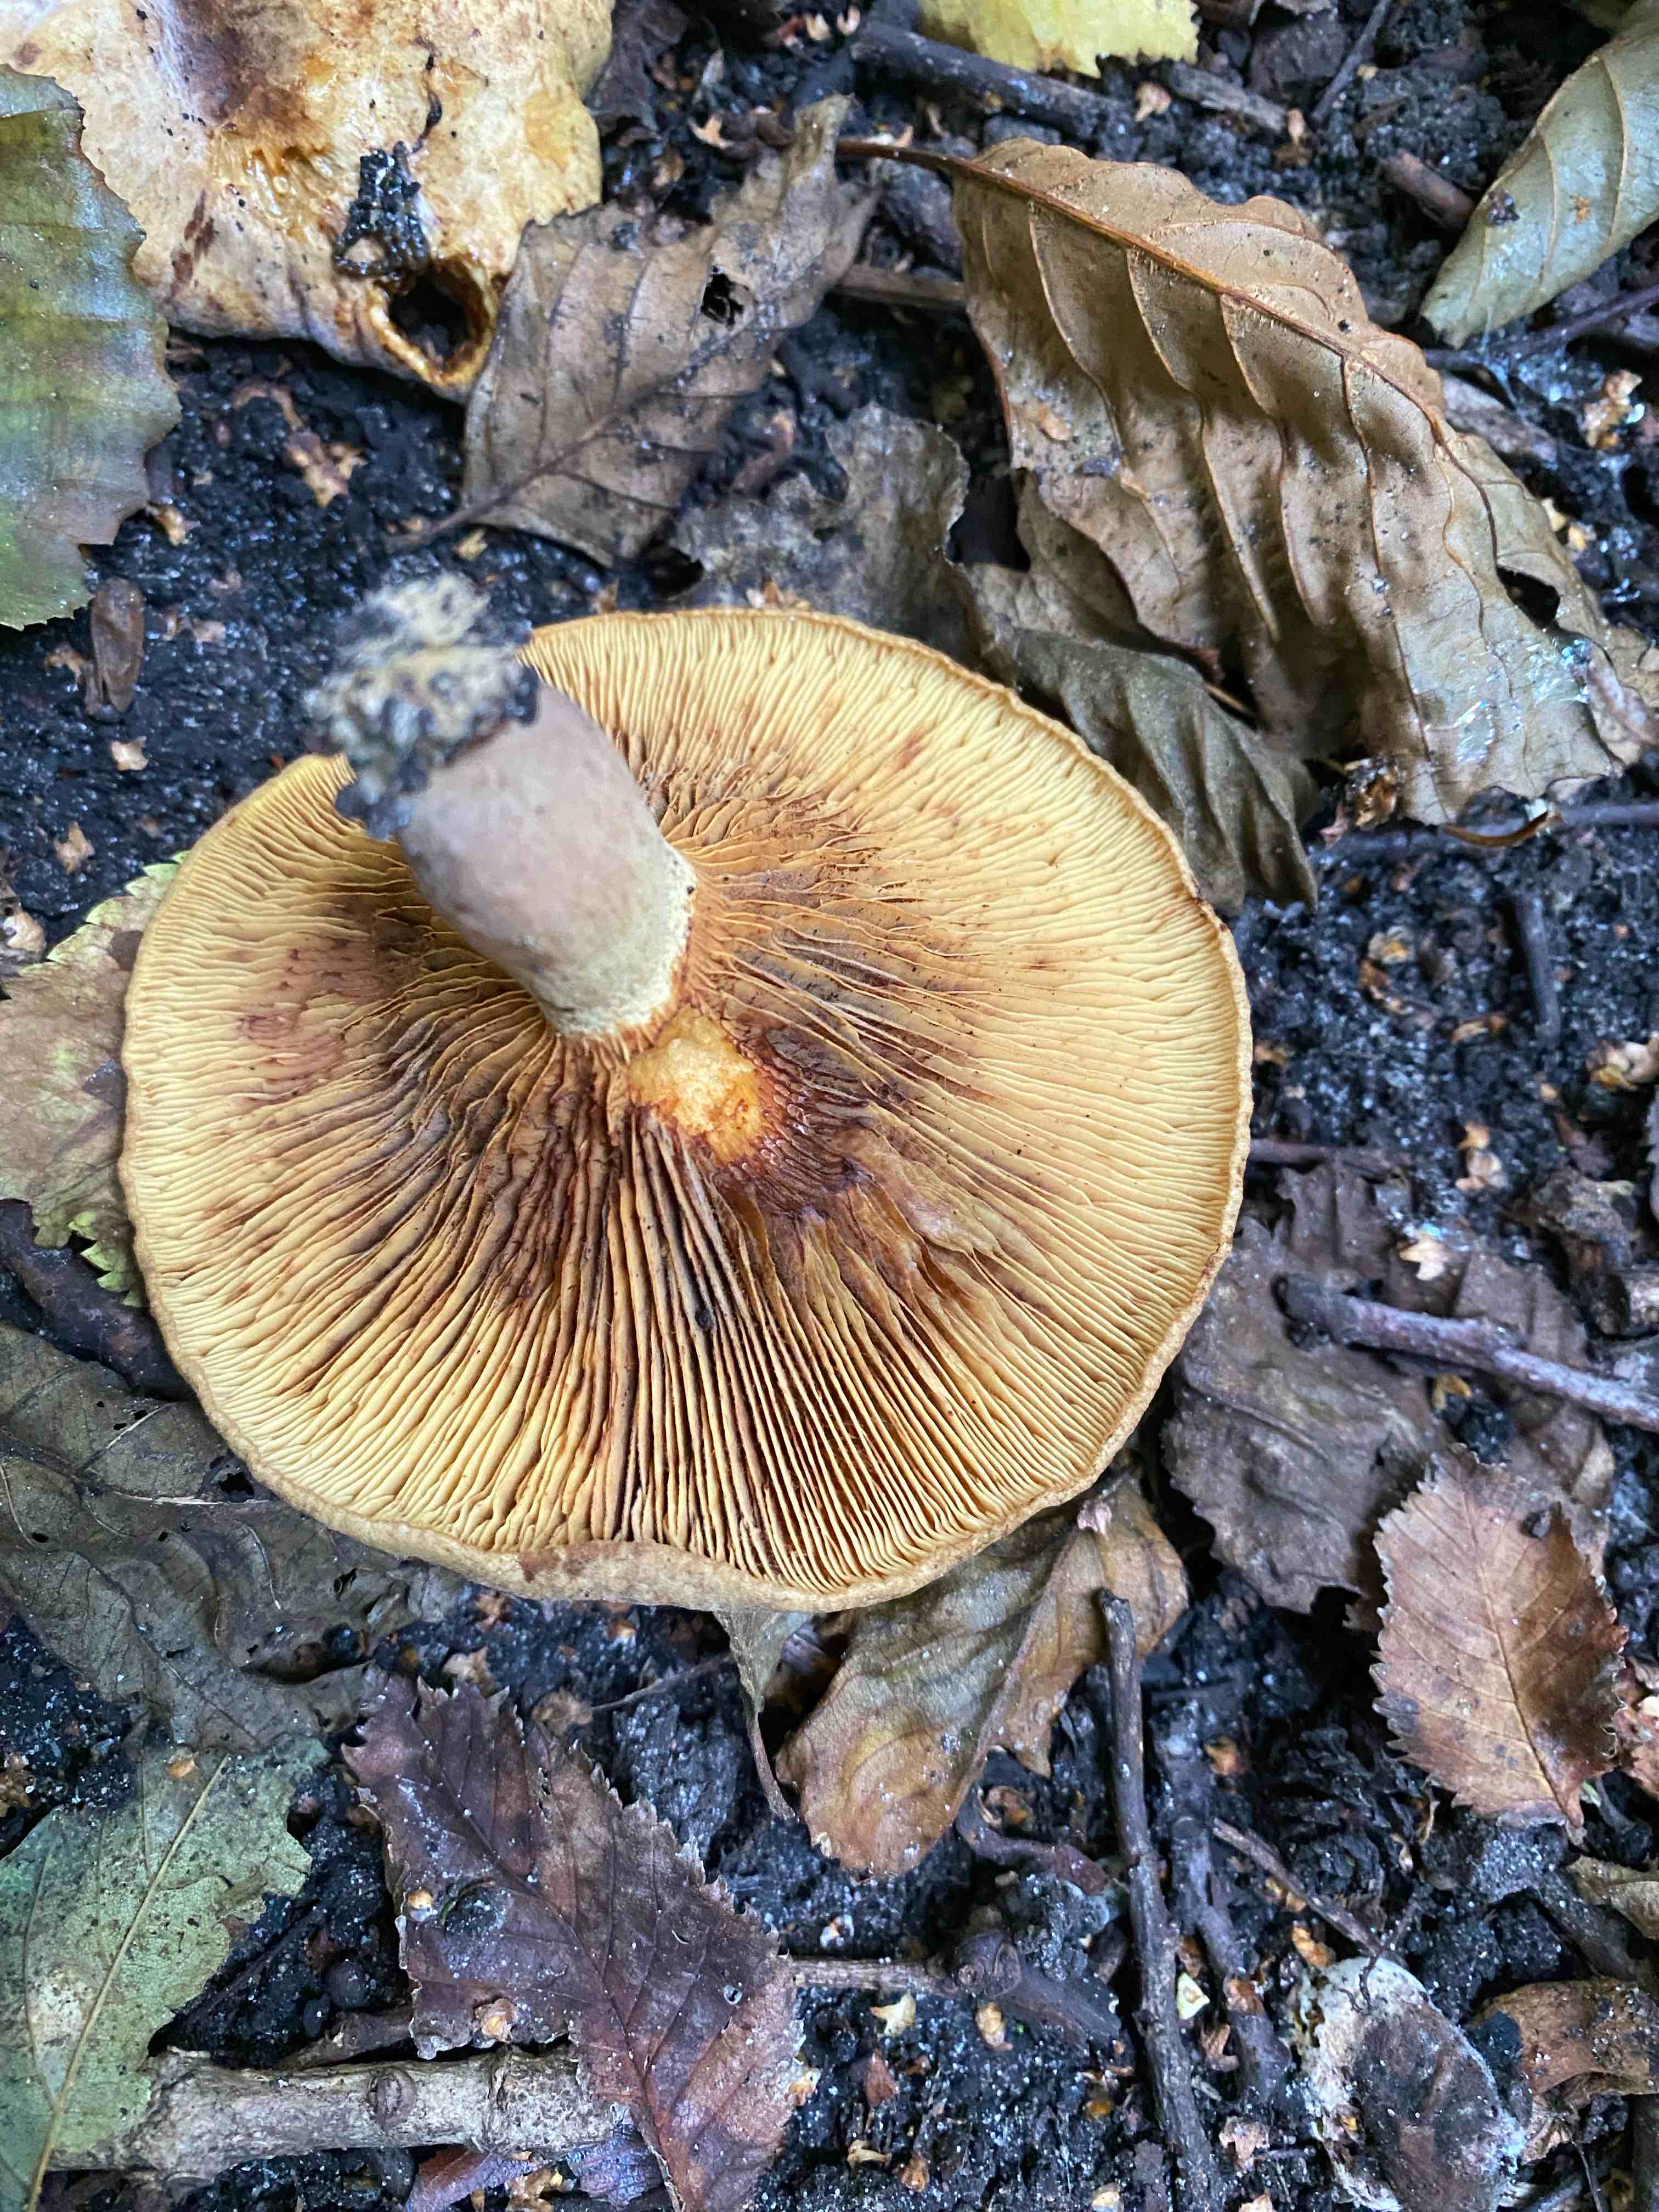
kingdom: Fungi
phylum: Basidiomycota
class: Agaricomycetes
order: Boletales
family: Paxillaceae
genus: Paxillus
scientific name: Paxillus rubicundulus
